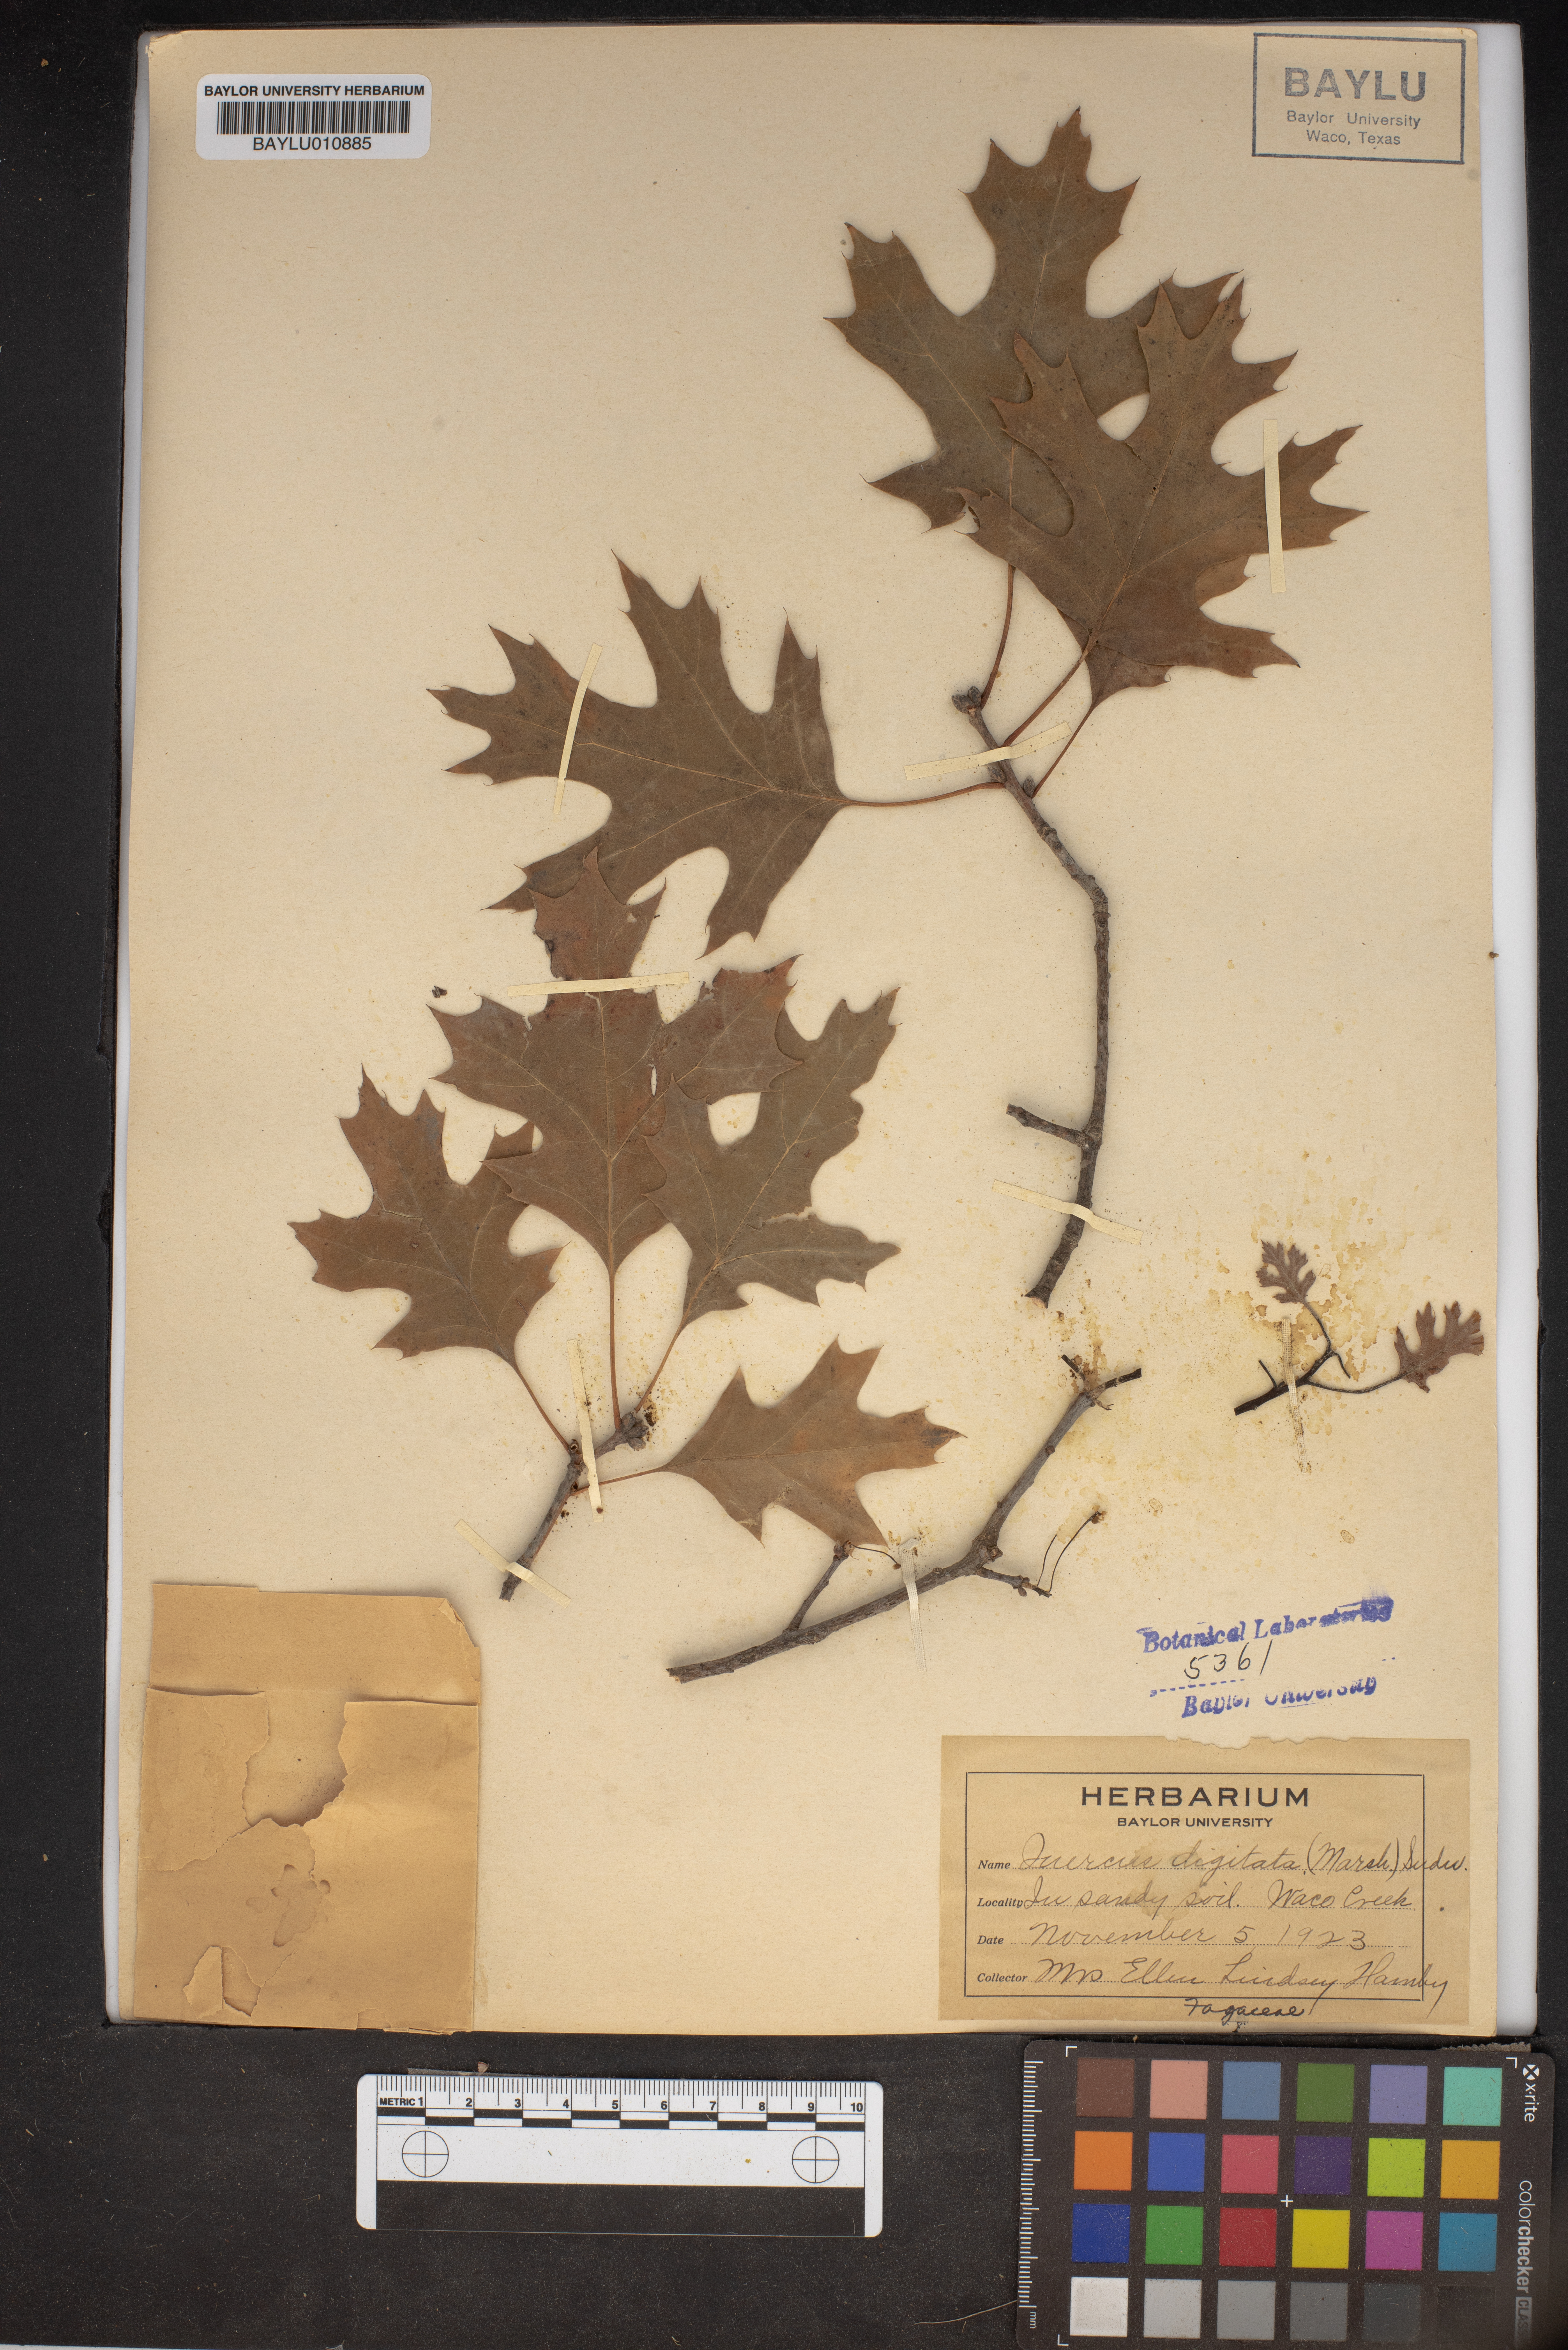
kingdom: Plantae
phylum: Tracheophyta
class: Magnoliopsida
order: Fagales
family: Fagaceae
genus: Quercus
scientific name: Quercus falcata
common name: Southern red oak
